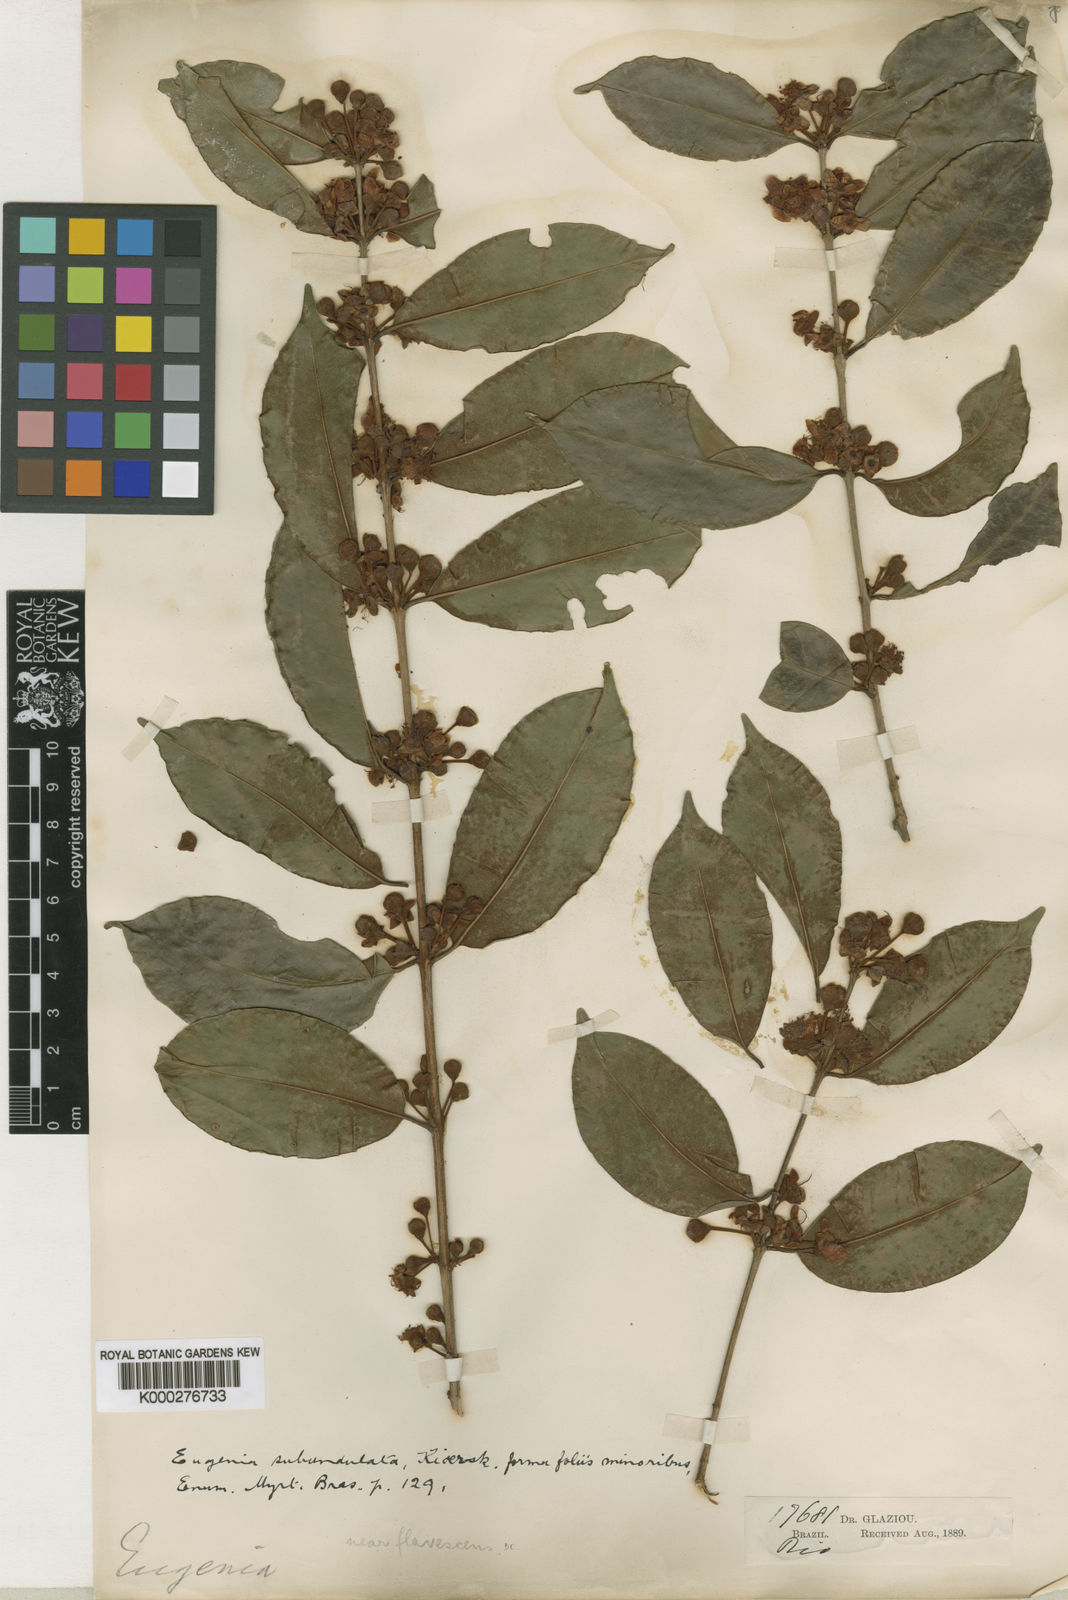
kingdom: Plantae
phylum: Tracheophyta
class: Magnoliopsida
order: Myrtales
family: Myrtaceae
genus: Eugenia
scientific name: Eugenia subundulata
